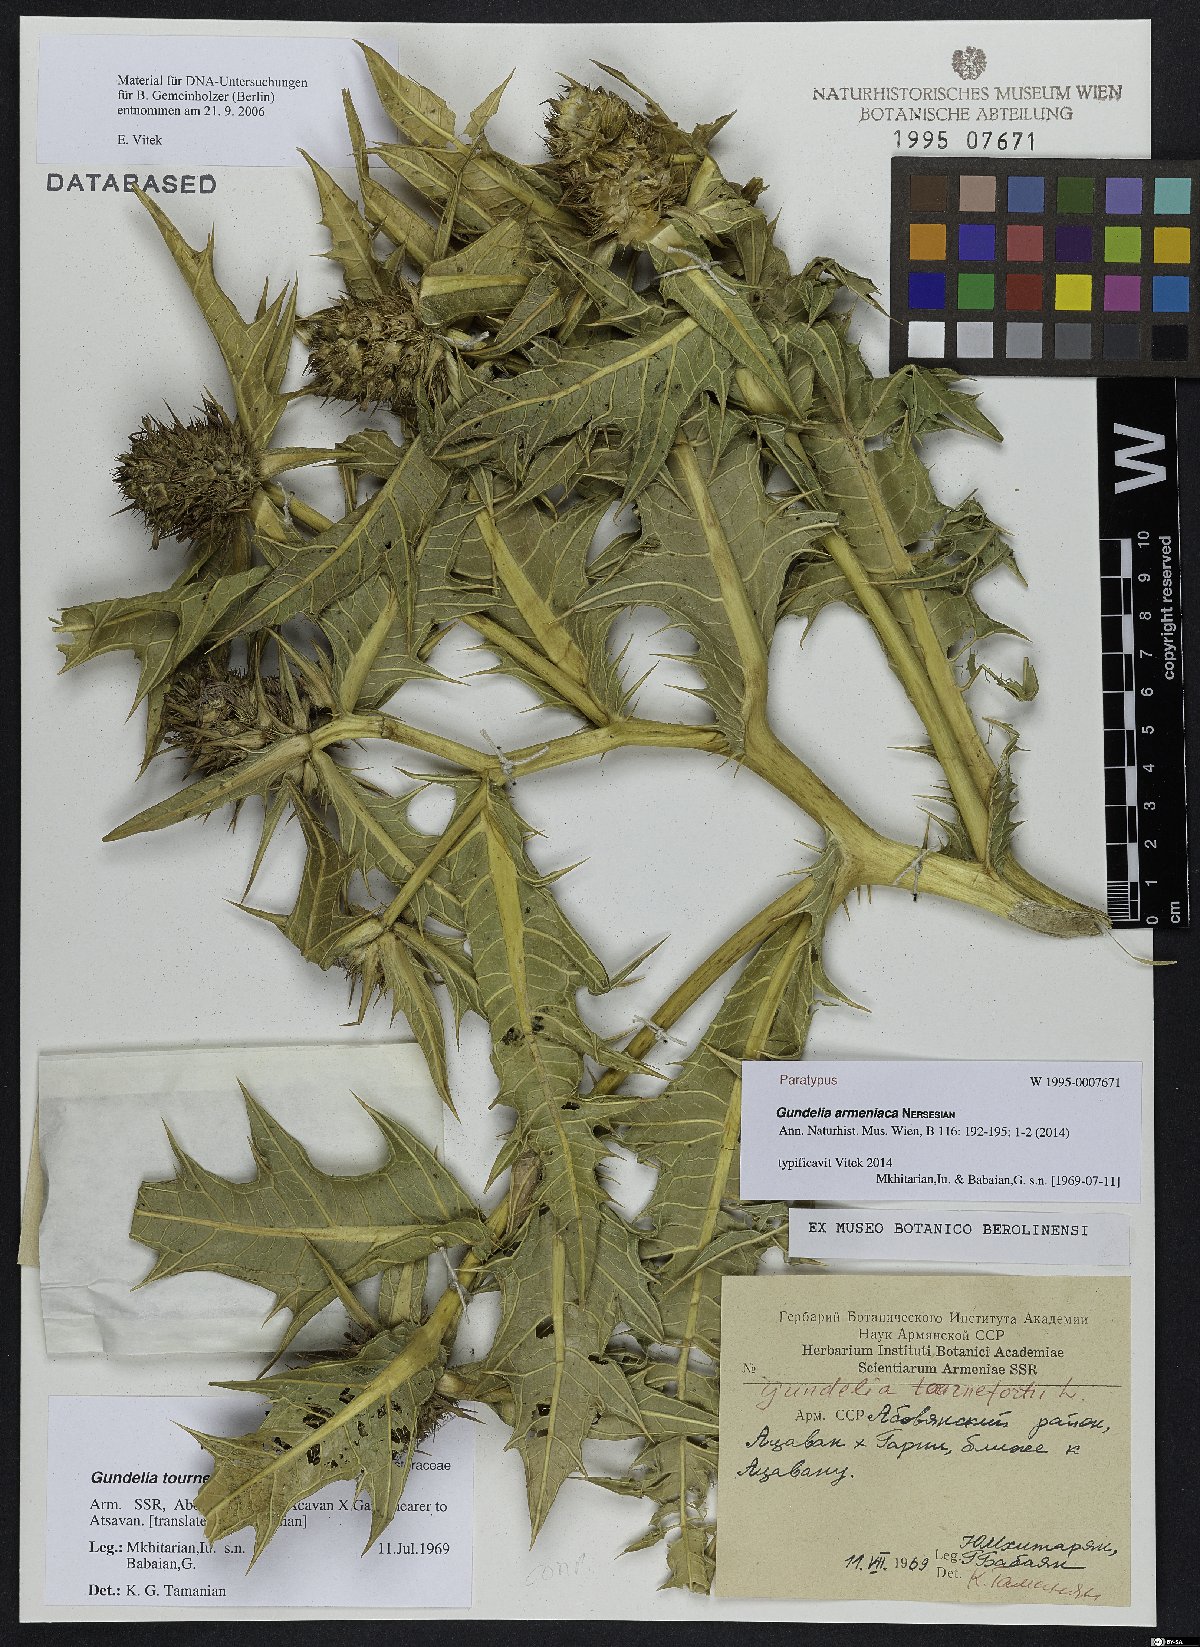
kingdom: Plantae
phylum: Tracheophyta
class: Magnoliopsida
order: Asterales
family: Asteraceae
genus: Gundelia
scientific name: Gundelia armeniaca
